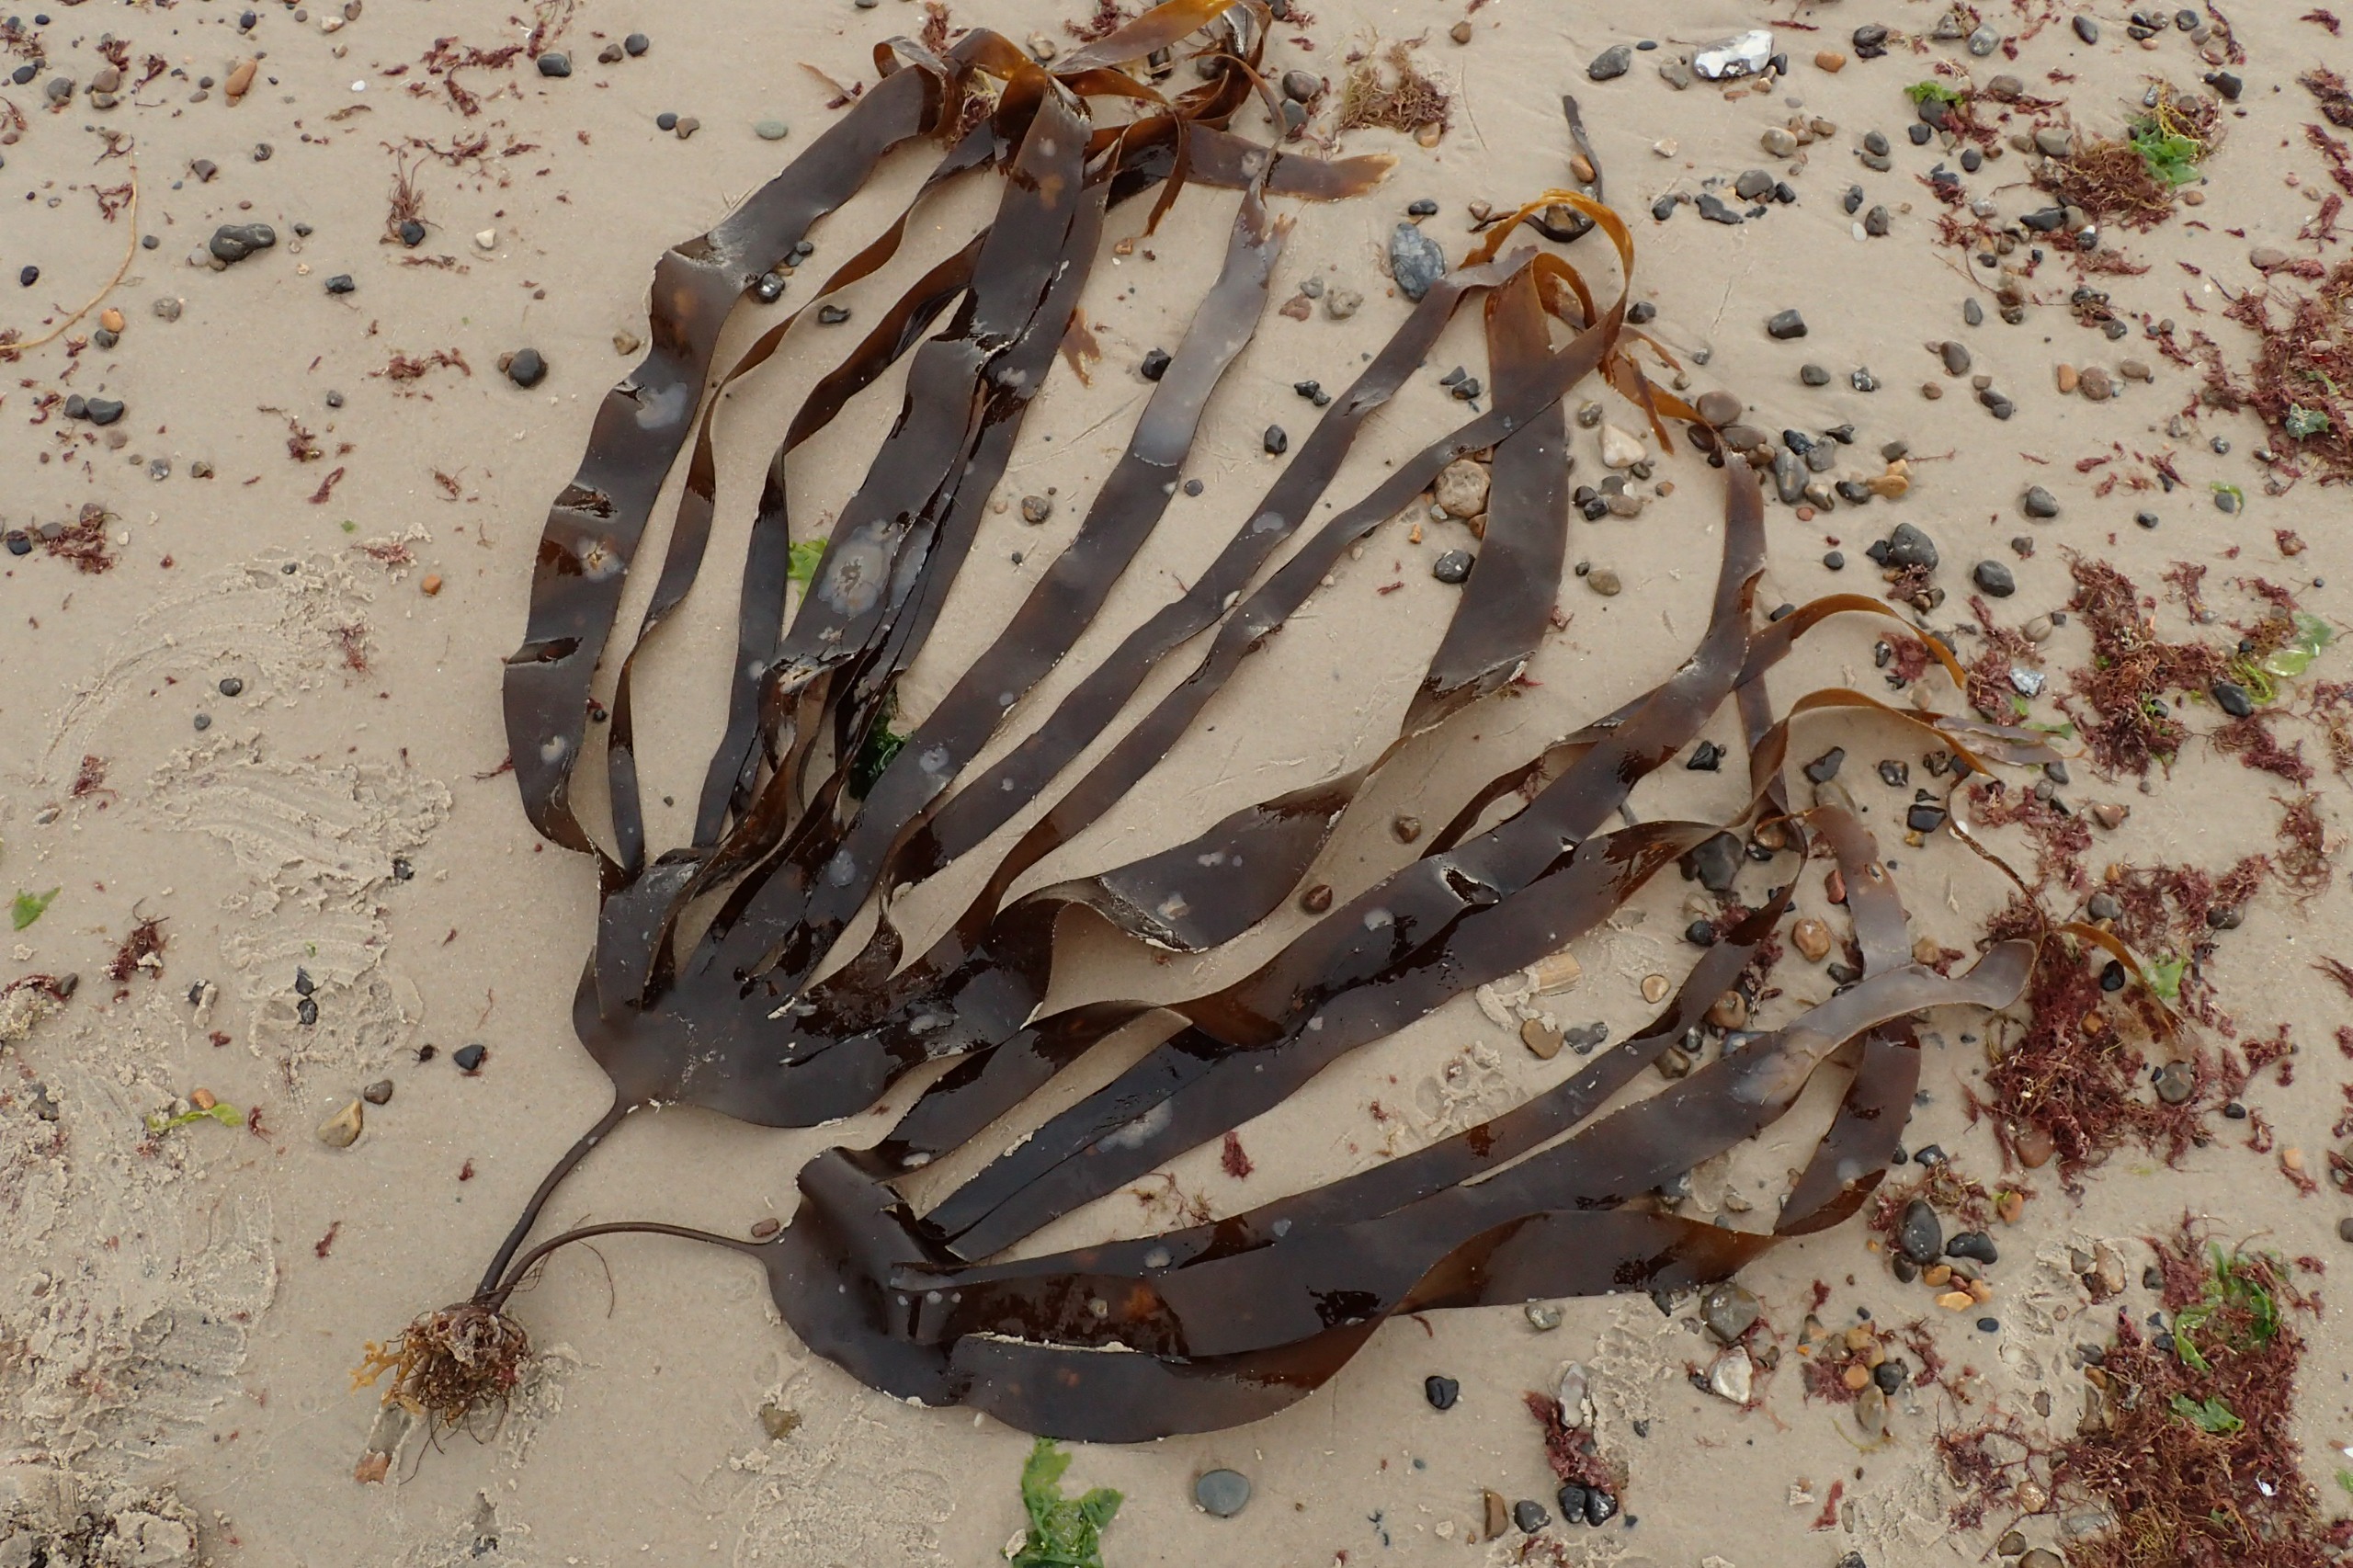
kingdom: Chromista
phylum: Ochrophyta
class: Phaeophyceae
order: Laminariales
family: Laminariaceae
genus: Laminaria
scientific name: Laminaria digitata
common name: Fingertang
